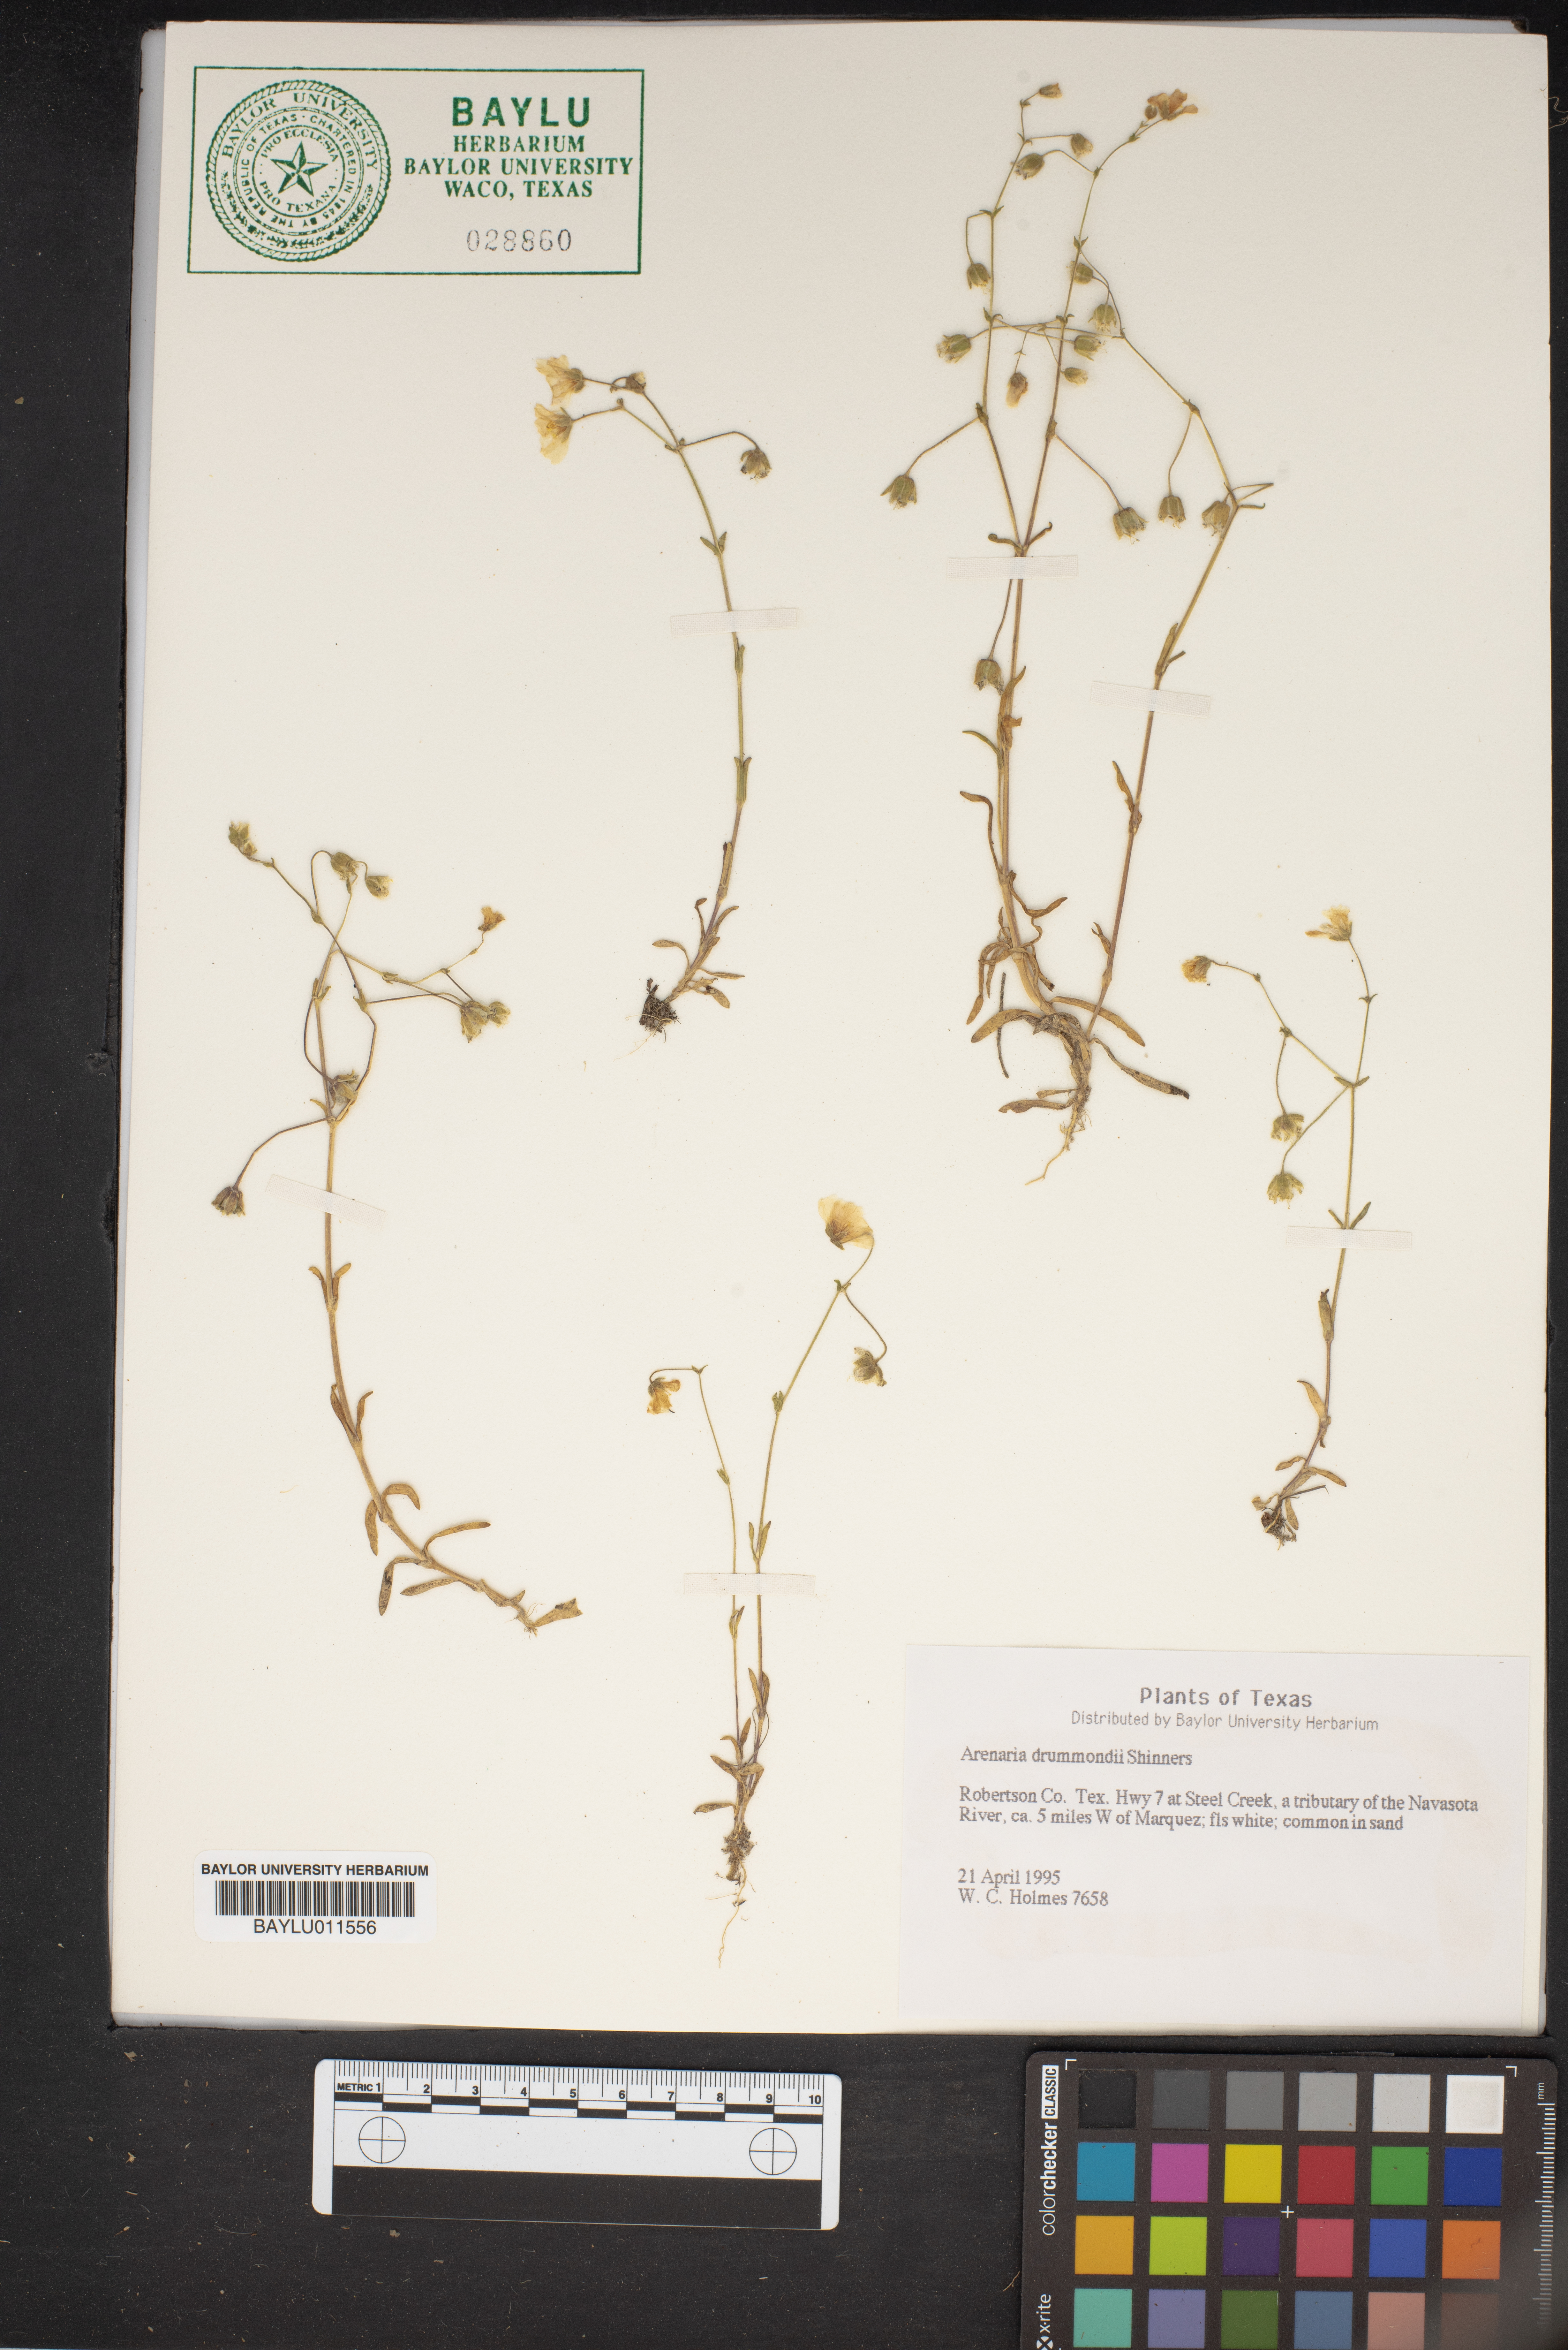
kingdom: Plantae
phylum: Tracheophyta
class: Magnoliopsida
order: Caryophyllales
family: Caryophyllaceae
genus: Geocarpon
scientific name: Geocarpon nuttallii
